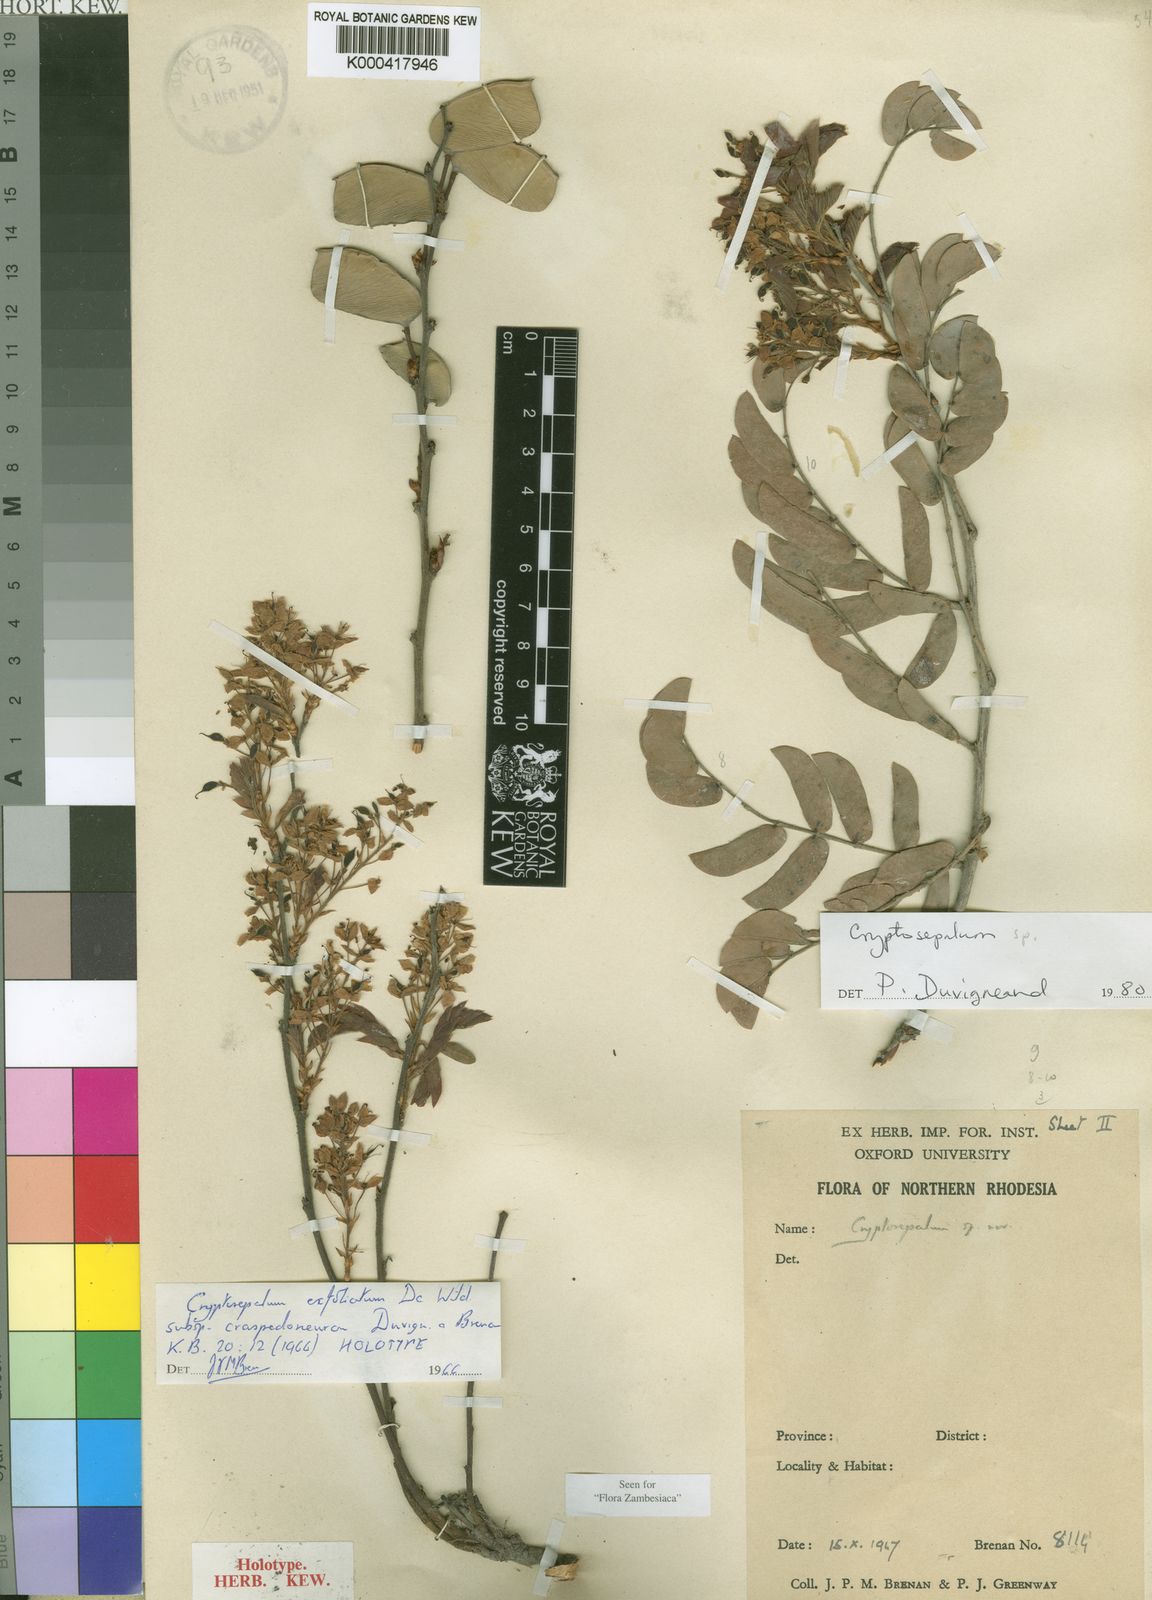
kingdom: Plantae
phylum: Tracheophyta
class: Magnoliopsida
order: Fabales
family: Fabaceae
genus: Cryptosepalum
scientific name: Cryptosepalum exfoliatum
